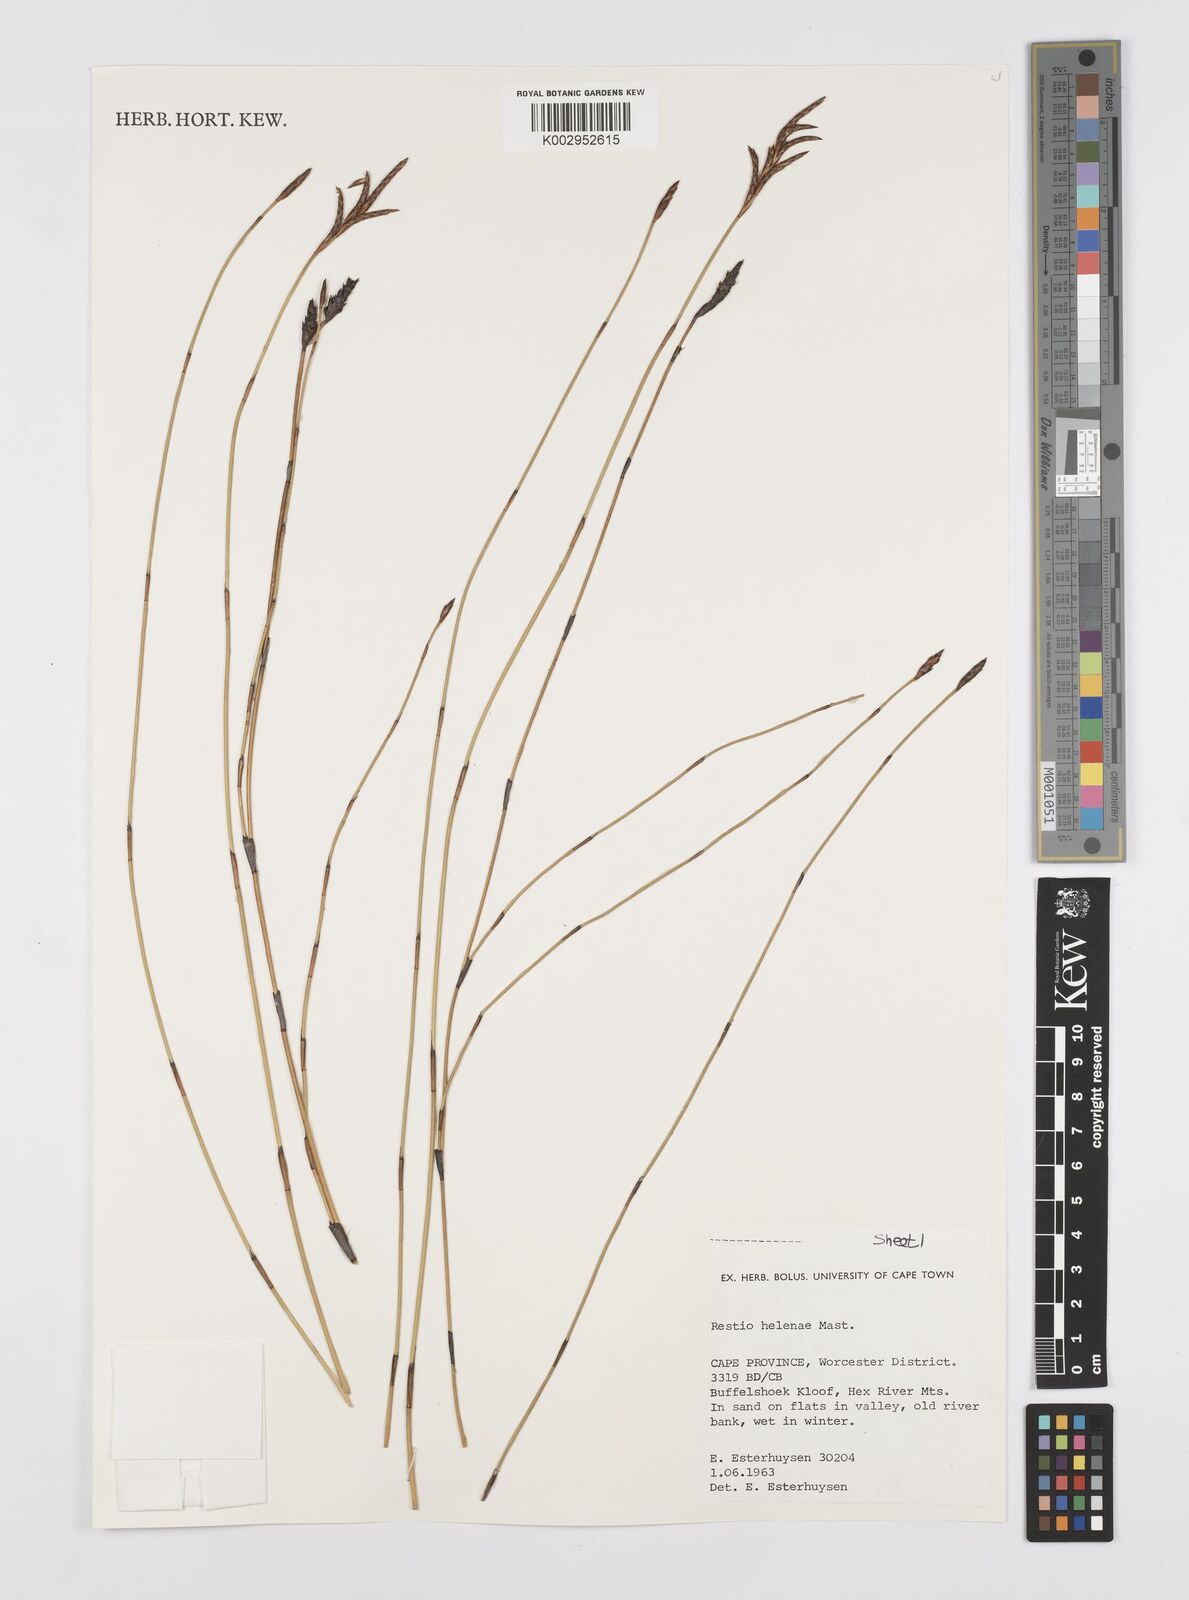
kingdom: Plantae
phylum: Tracheophyta
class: Liliopsida
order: Poales
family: Restionaceae
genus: Restio
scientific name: Restio helenae
